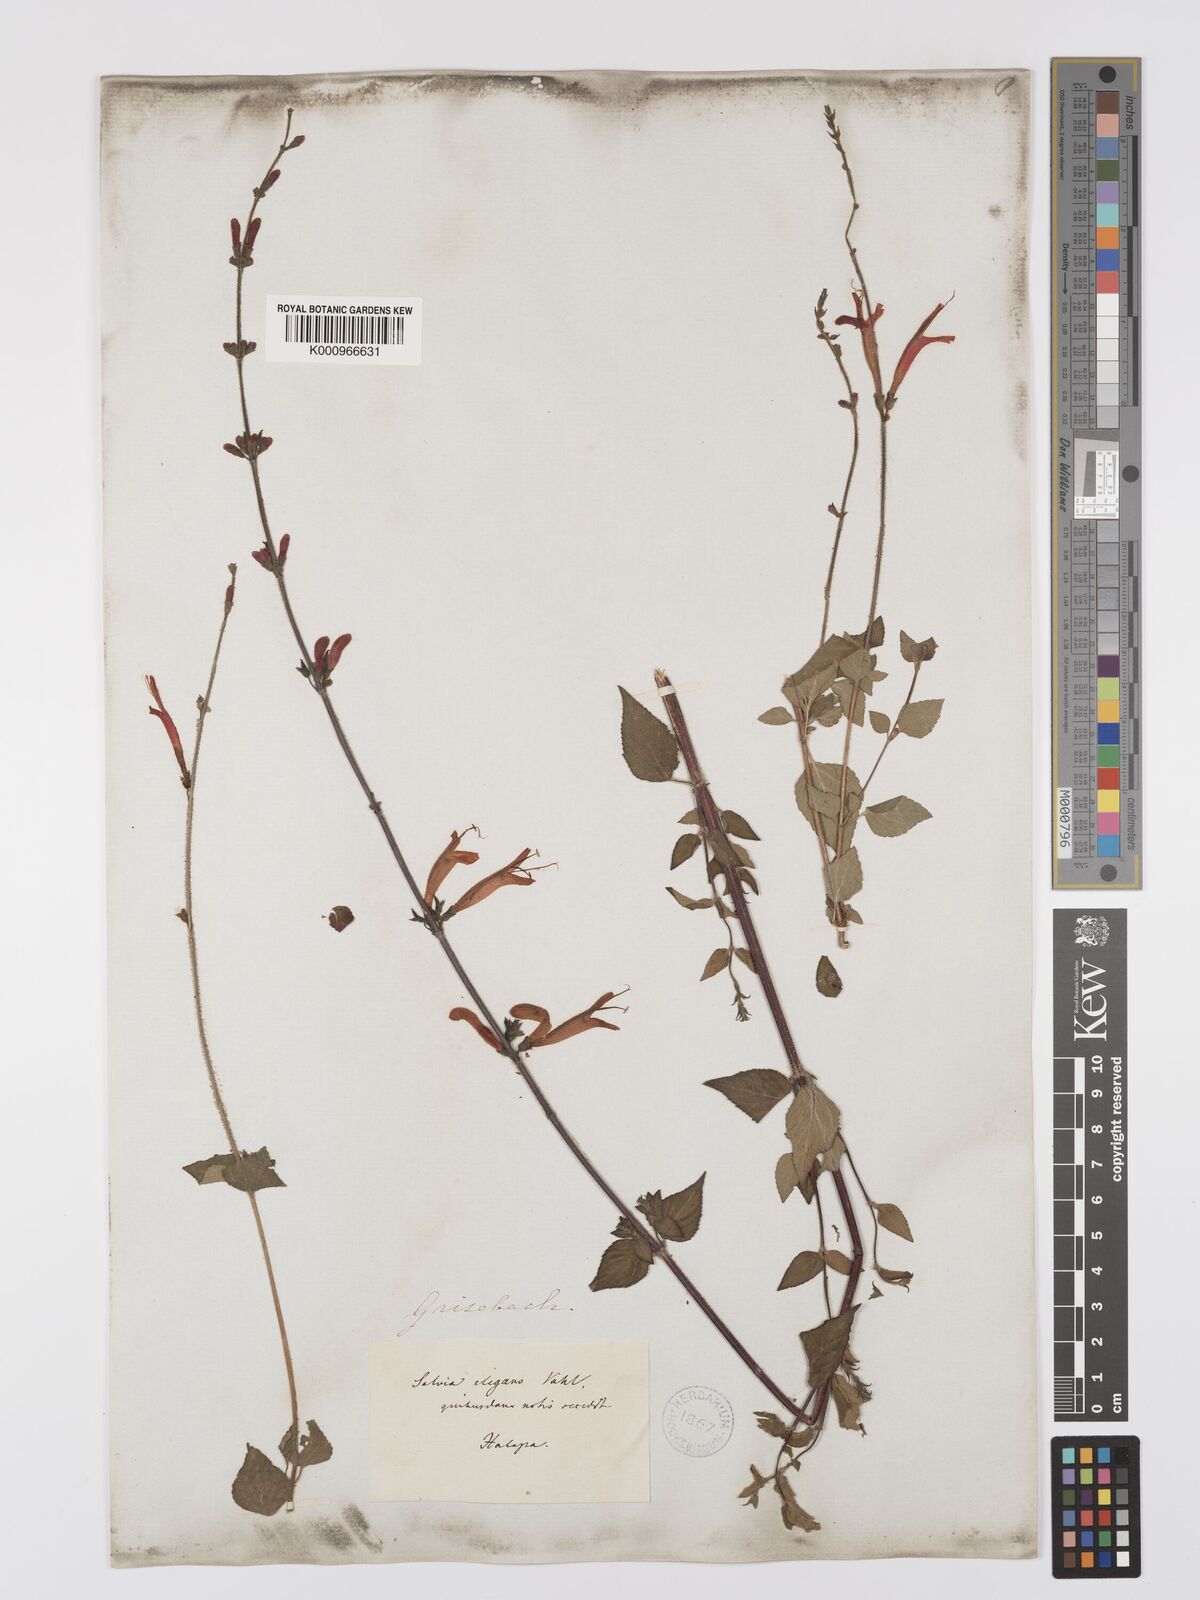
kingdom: Plantae
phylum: Tracheophyta
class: Magnoliopsida
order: Lamiales
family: Lamiaceae
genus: Salvia
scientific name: Salvia elegans
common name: Pineapple sage
